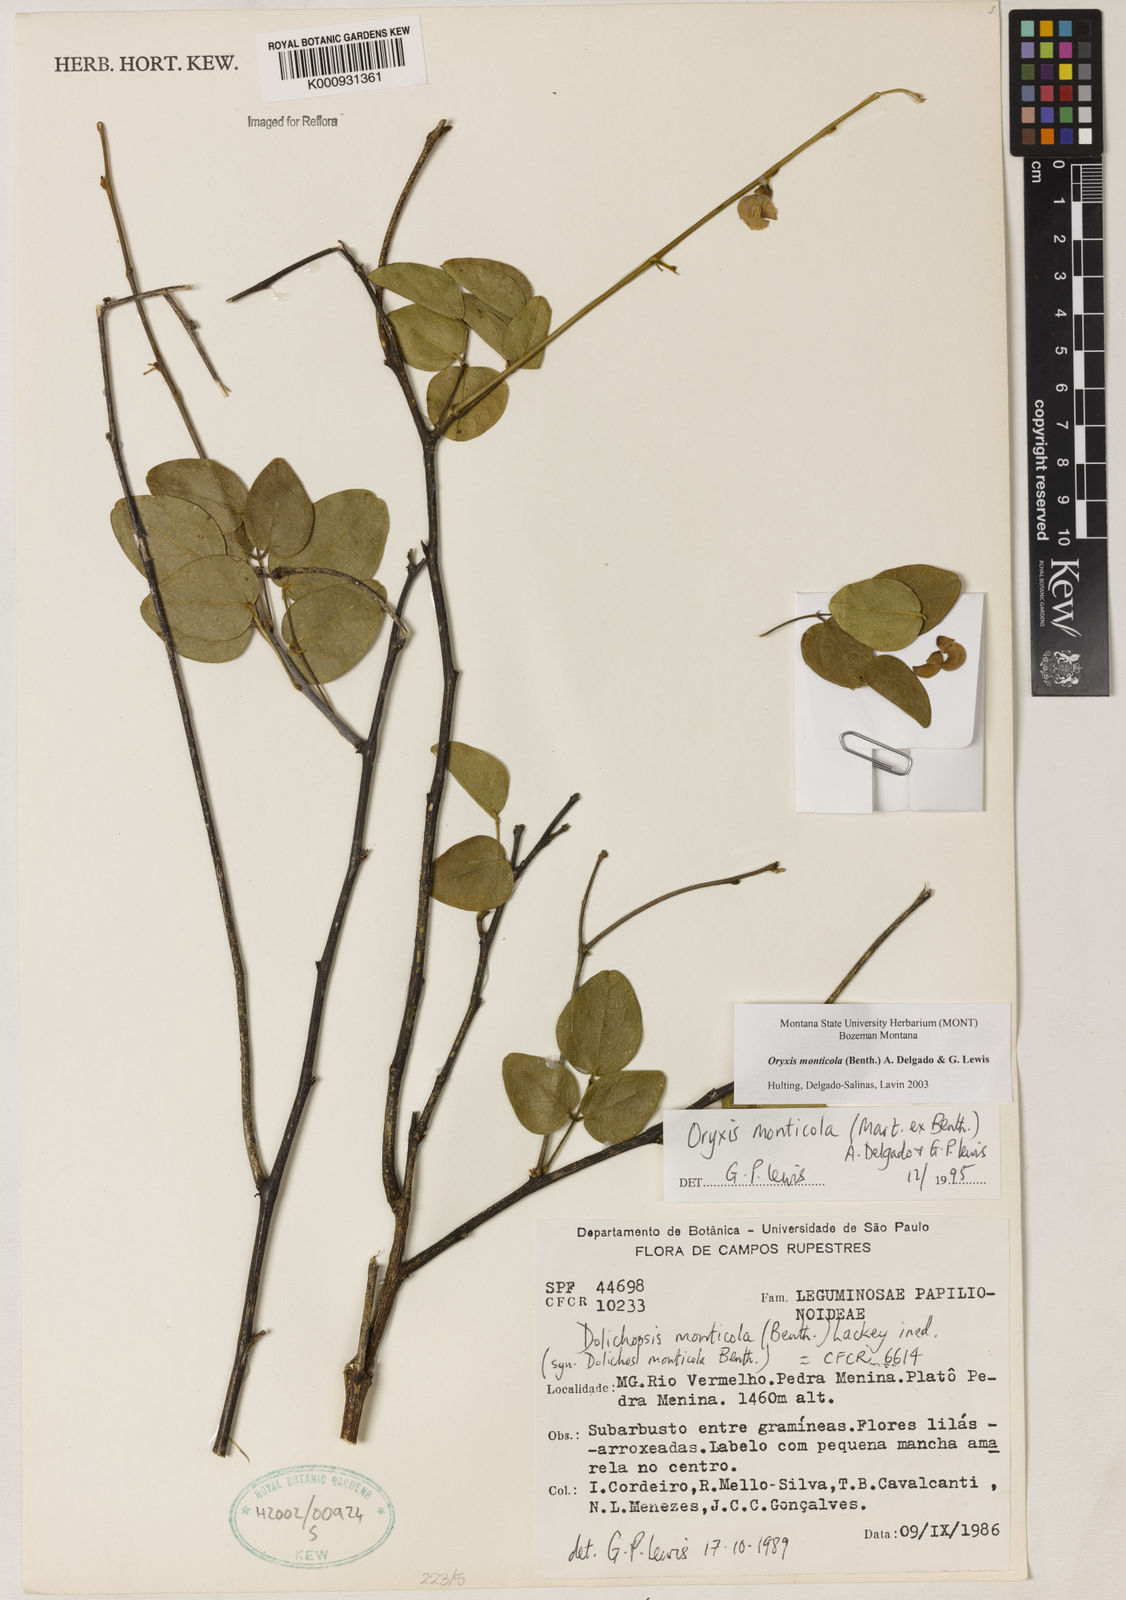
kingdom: Plantae
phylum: Tracheophyta
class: Magnoliopsida
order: Fabales
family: Fabaceae
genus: Dolichopsis
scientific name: Dolichopsis monticola
